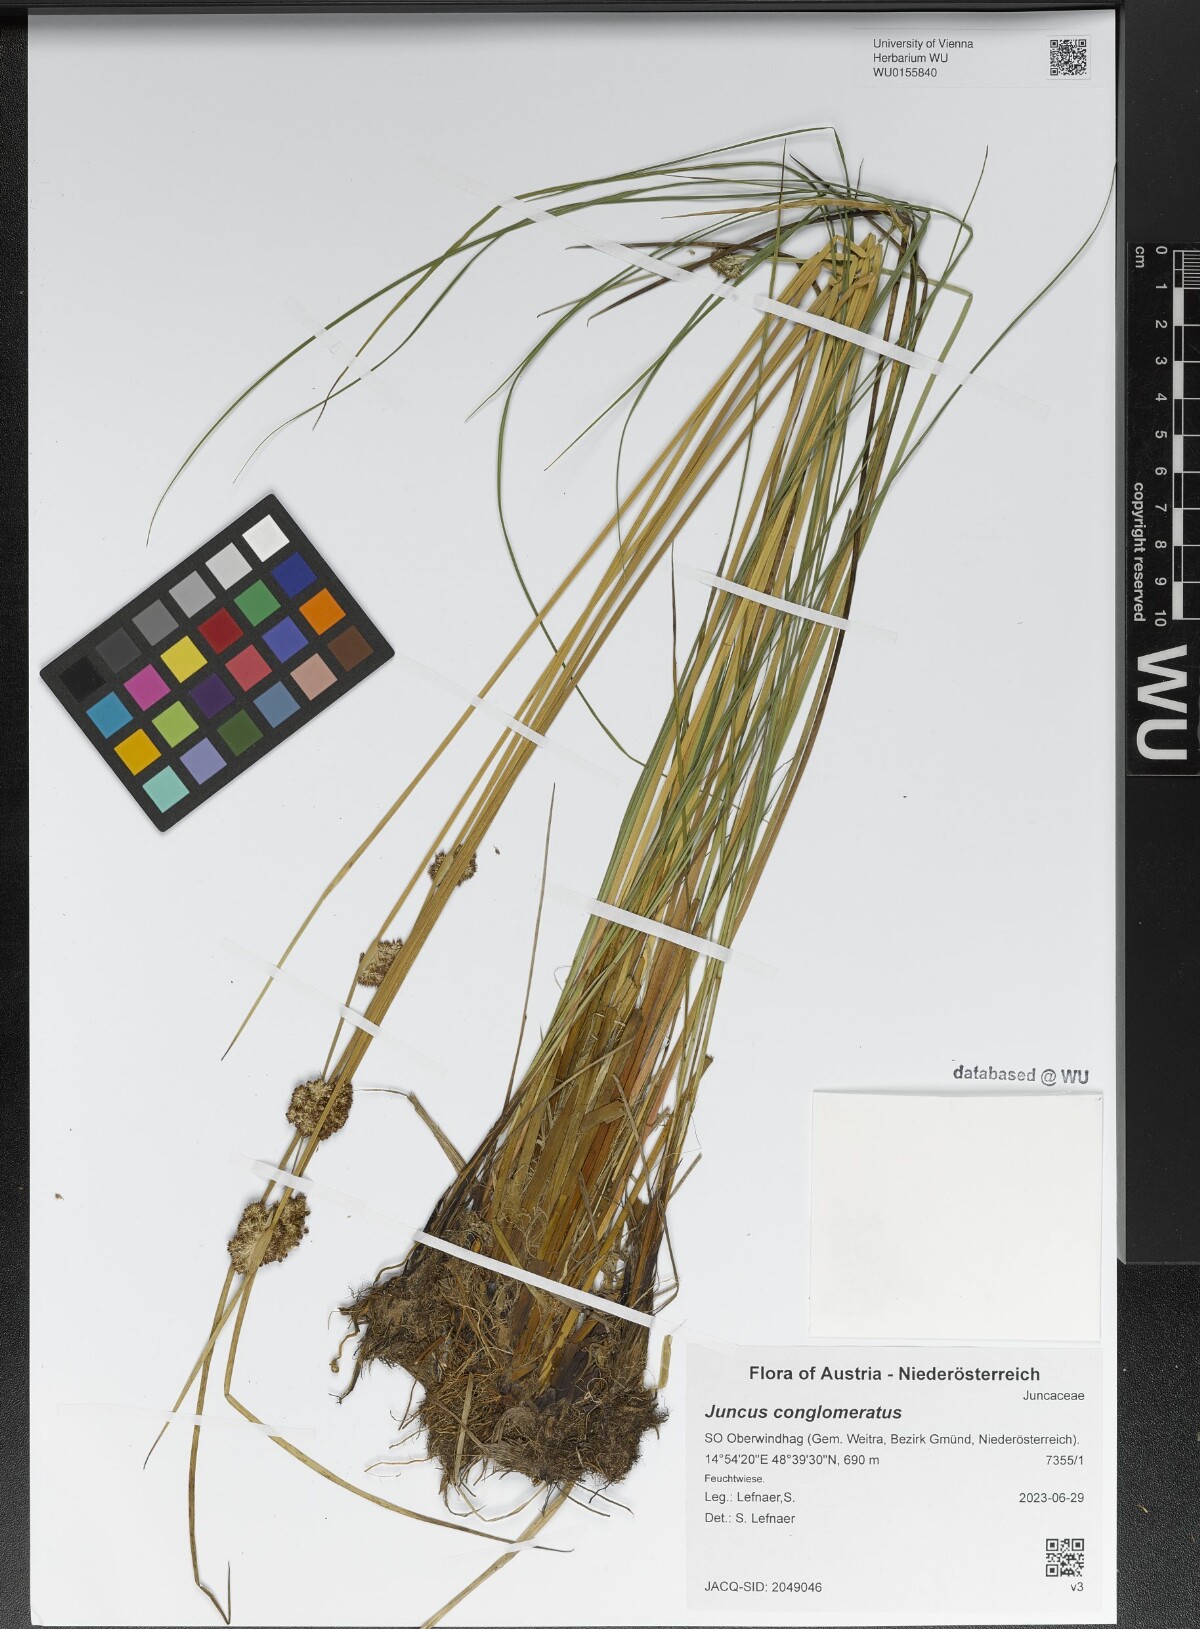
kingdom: Plantae
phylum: Tracheophyta
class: Liliopsida
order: Poales
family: Juncaceae
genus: Juncus
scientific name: Juncus conglomeratus
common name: Compact rush
